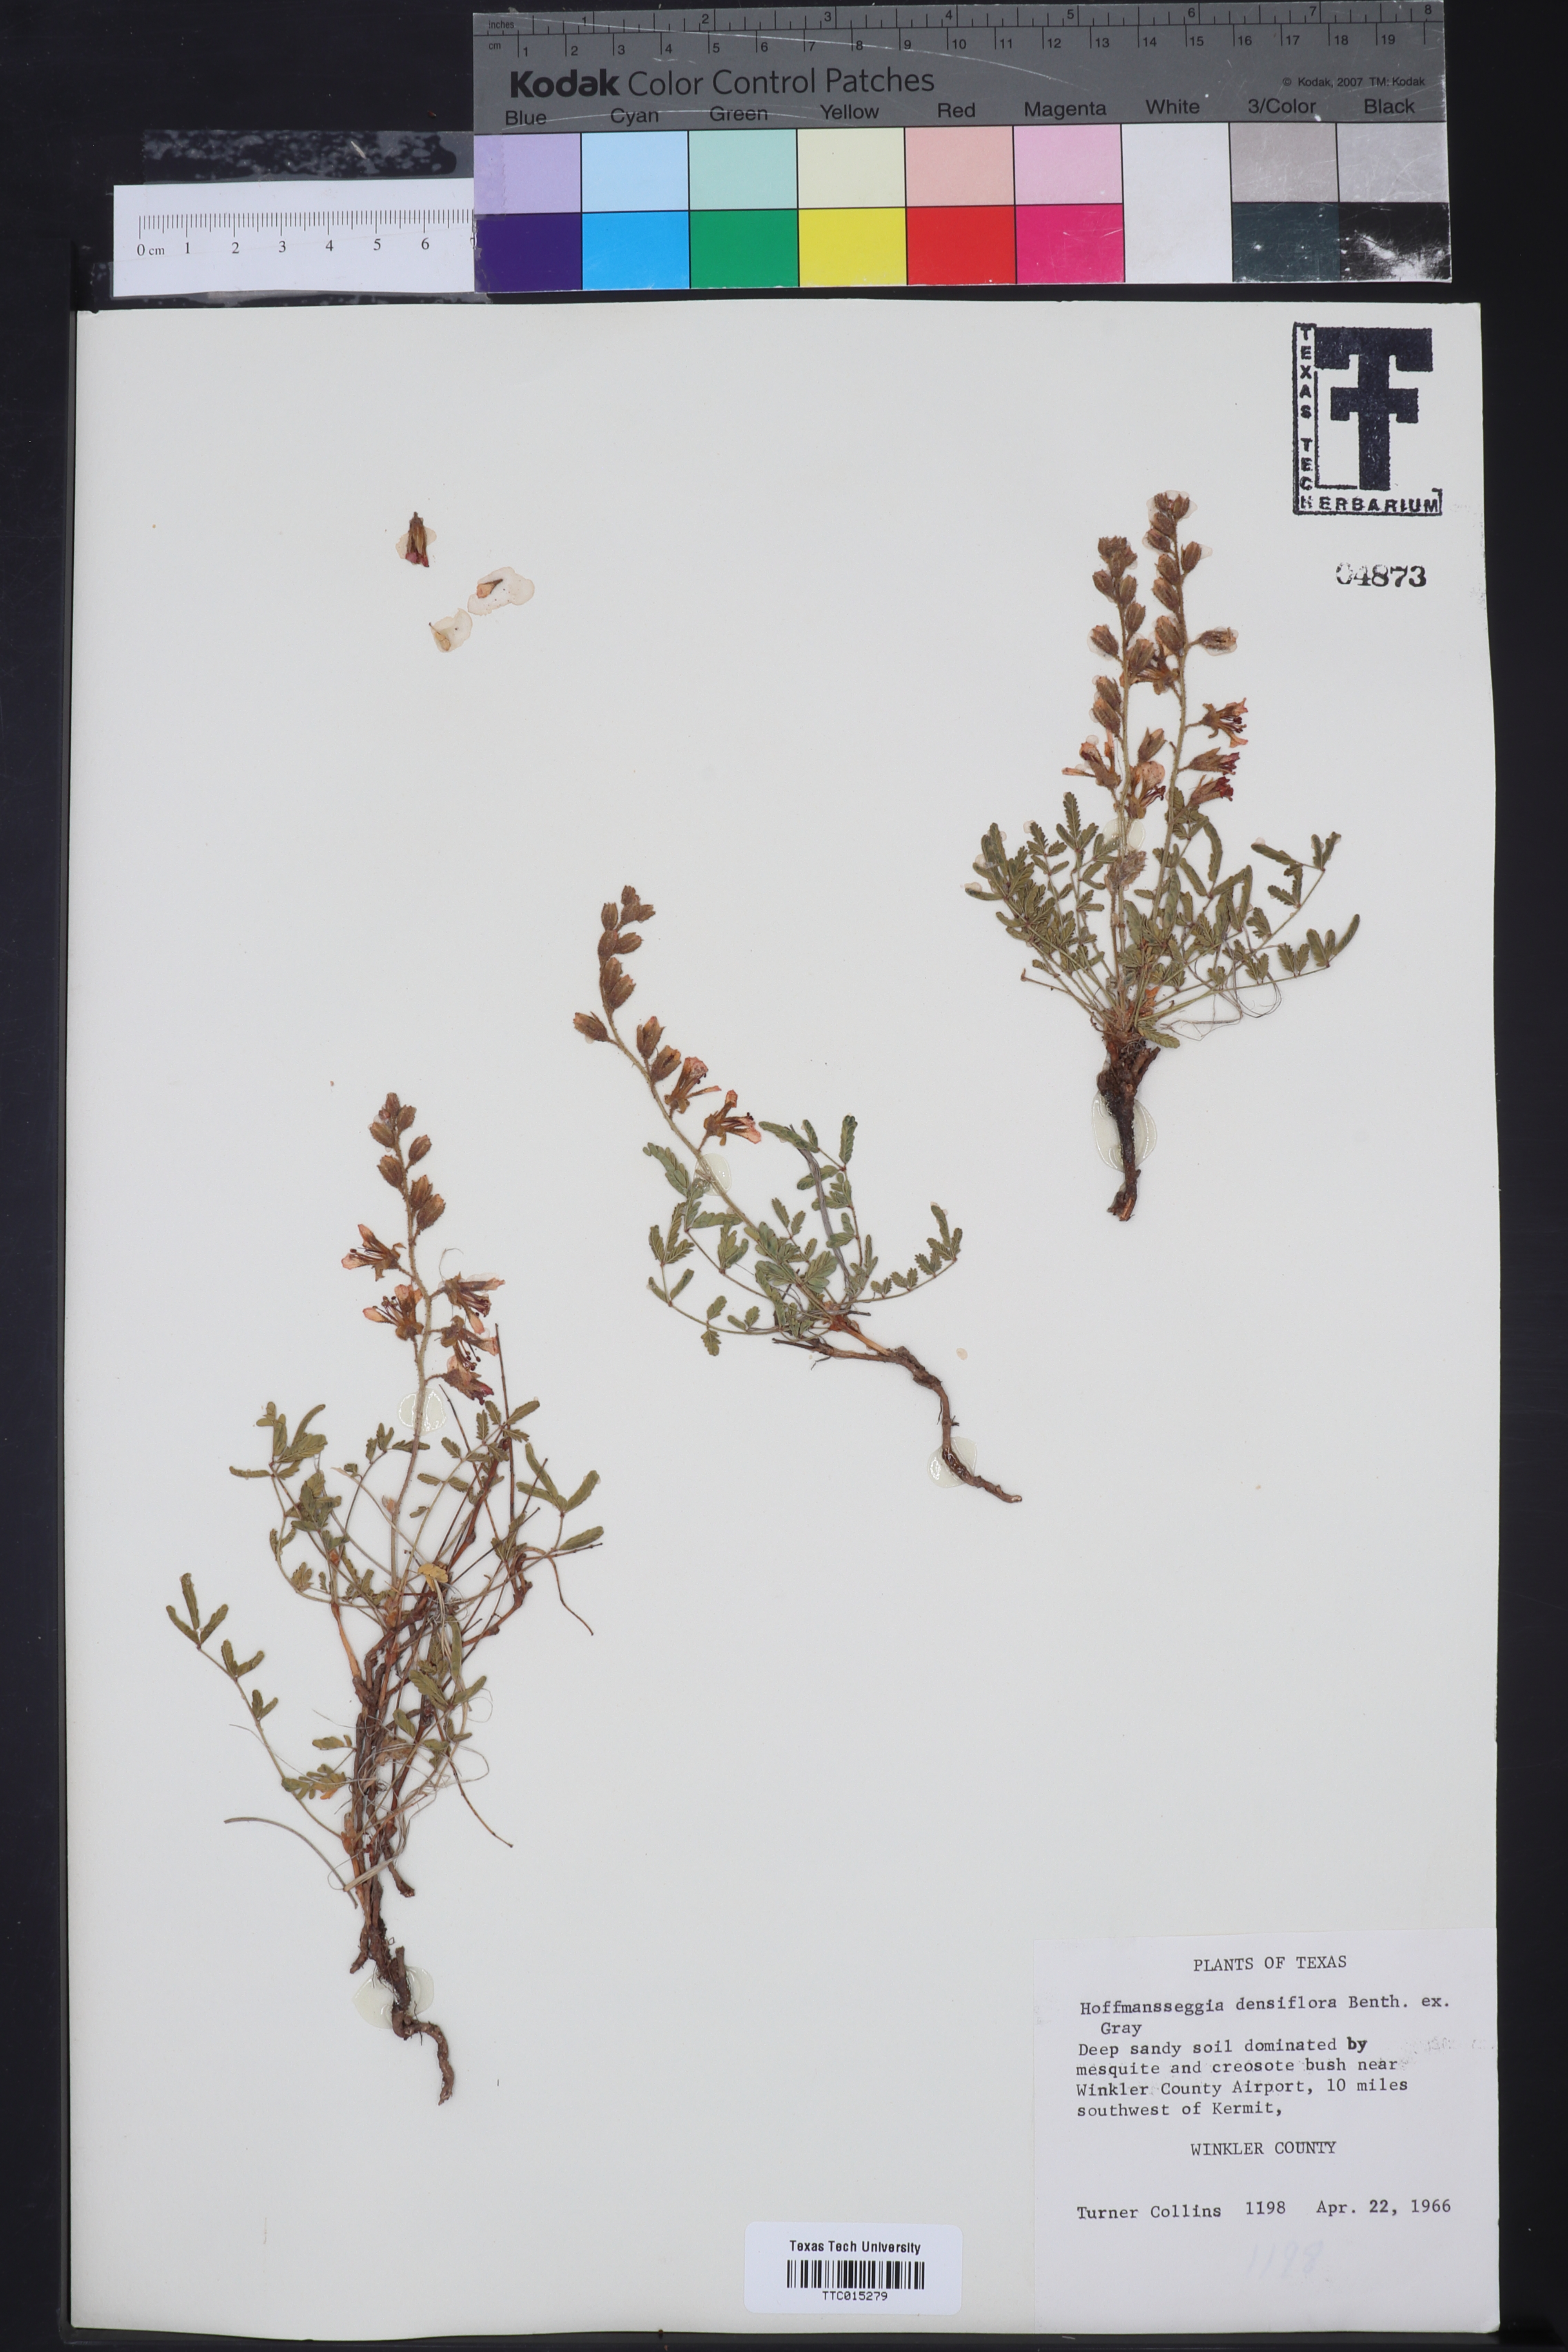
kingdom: Plantae
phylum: Tracheophyta
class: Magnoliopsida
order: Fabales
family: Fabaceae
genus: Hoffmannseggia
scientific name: Hoffmannseggia glauca
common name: Pignut
